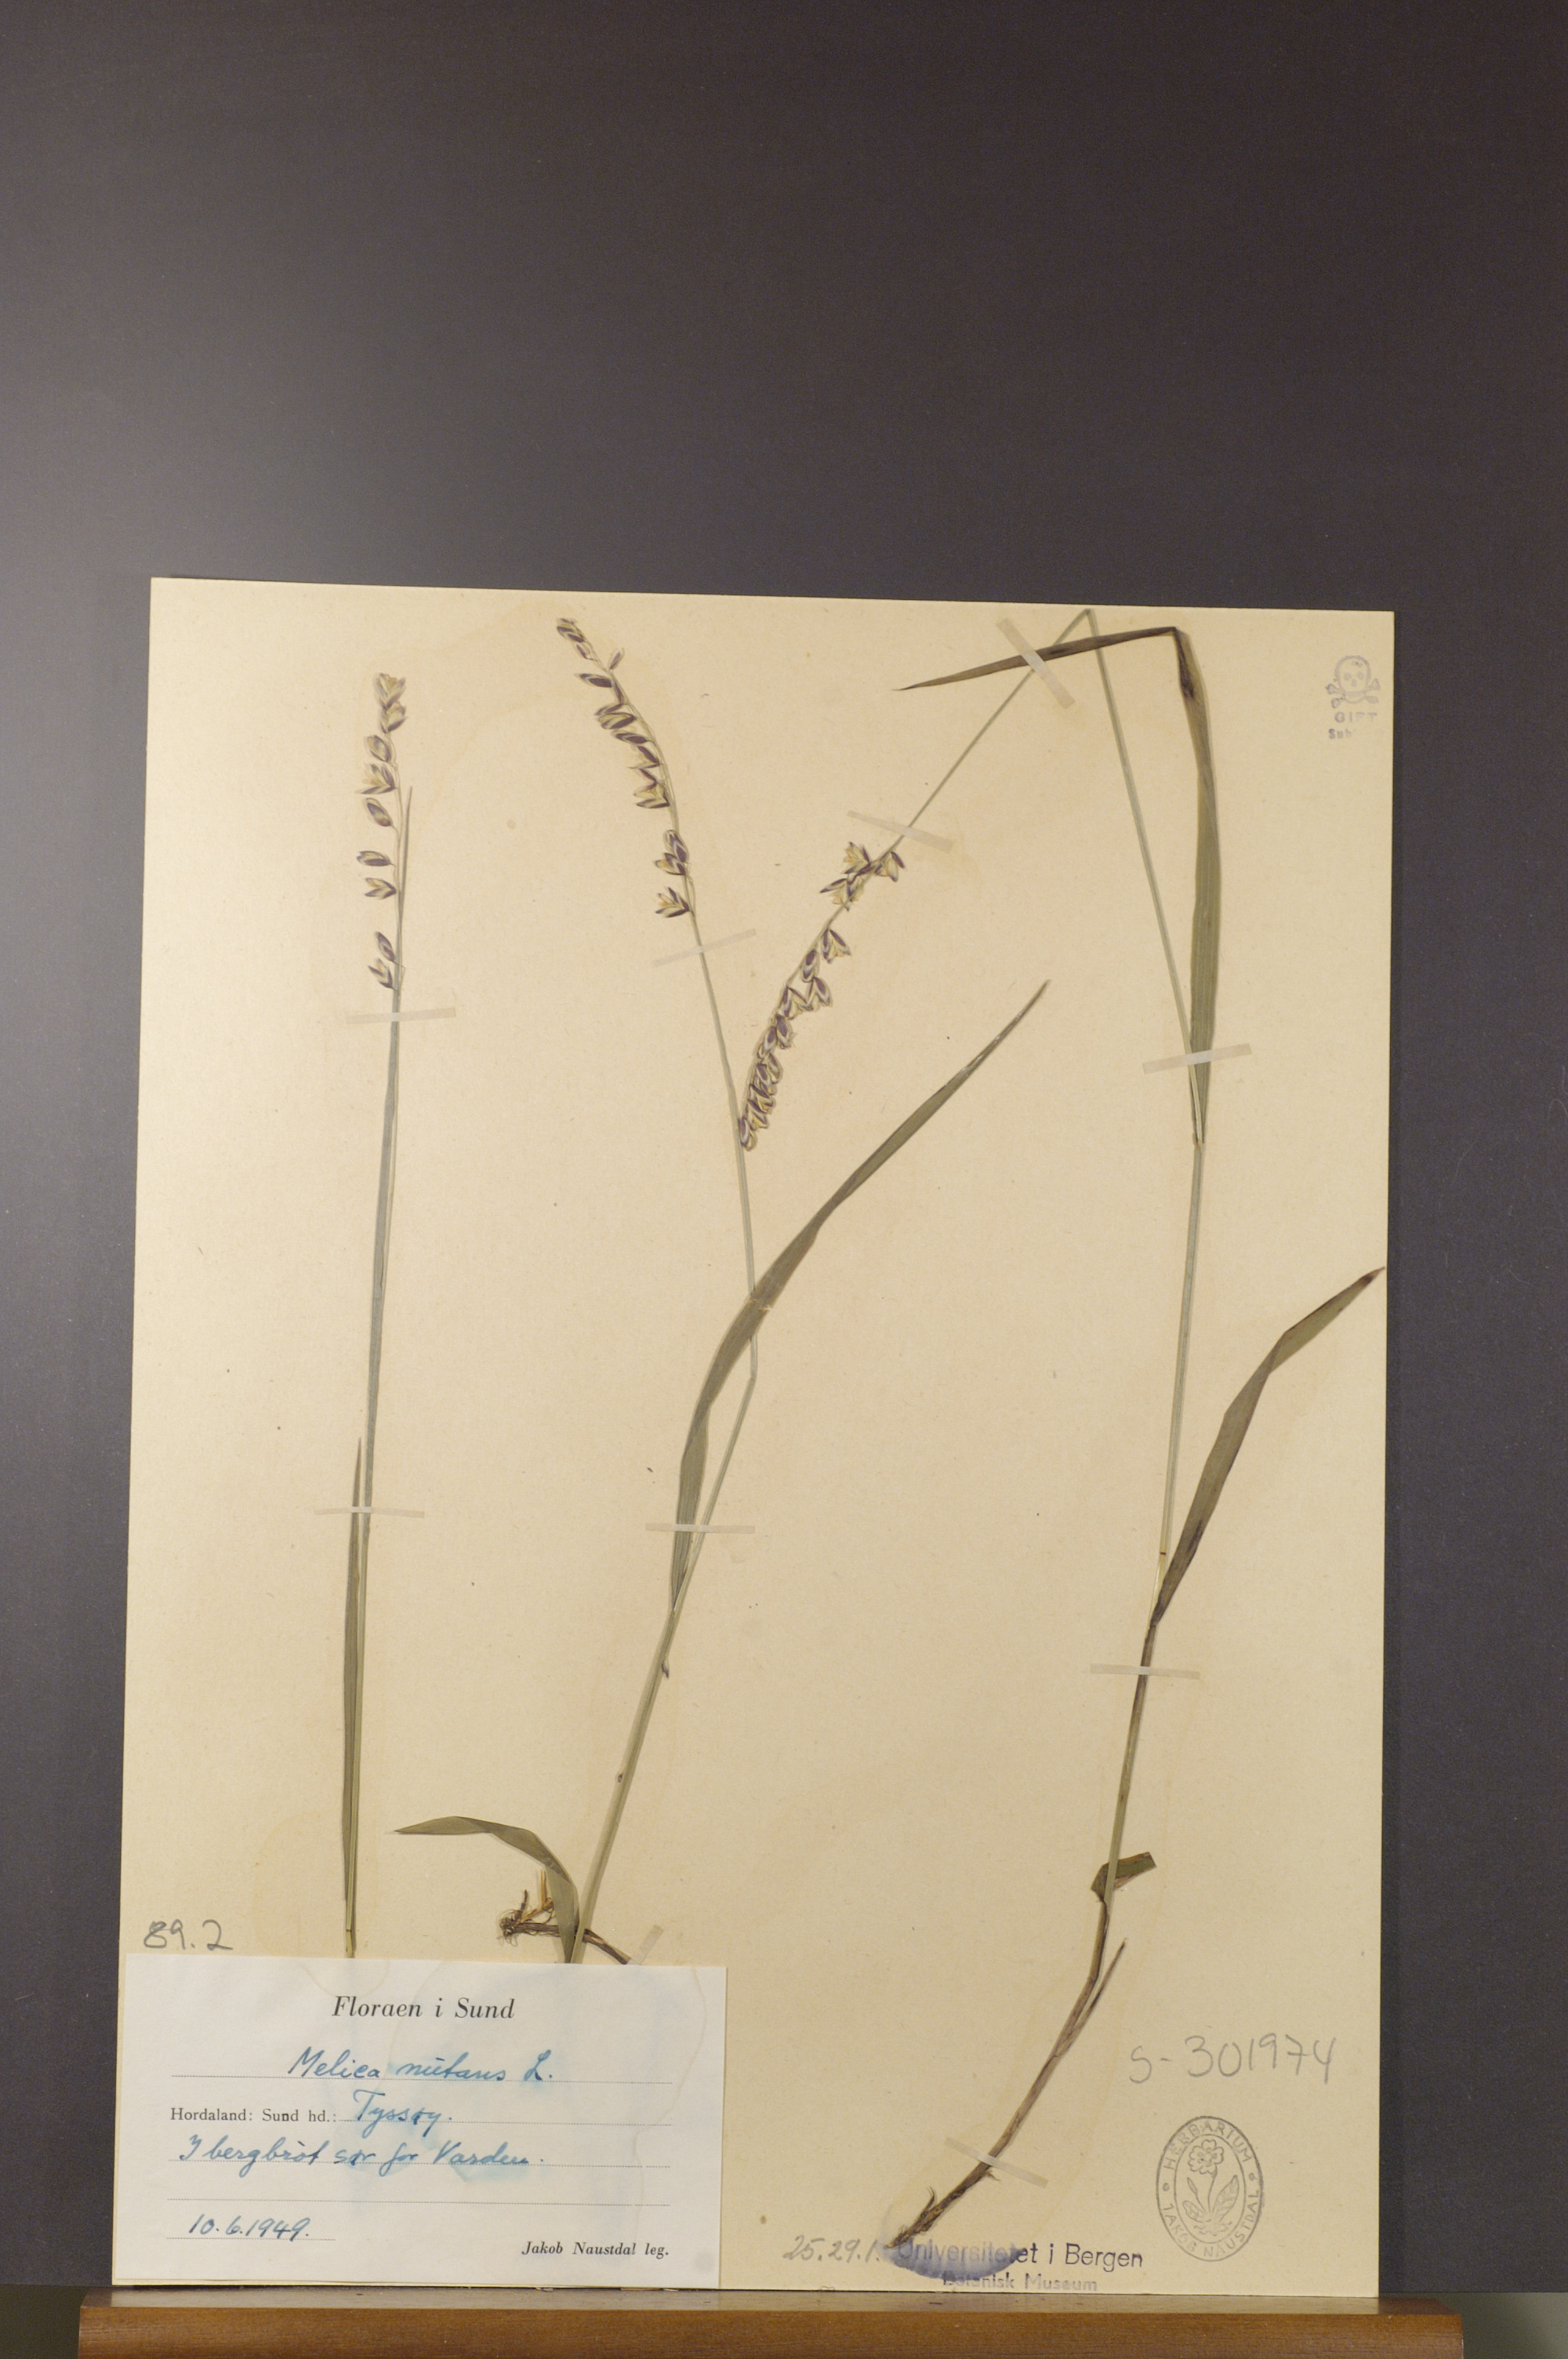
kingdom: Plantae
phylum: Tracheophyta
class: Liliopsida
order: Poales
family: Poaceae
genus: Melica
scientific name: Melica nutans
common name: Mountain melick
